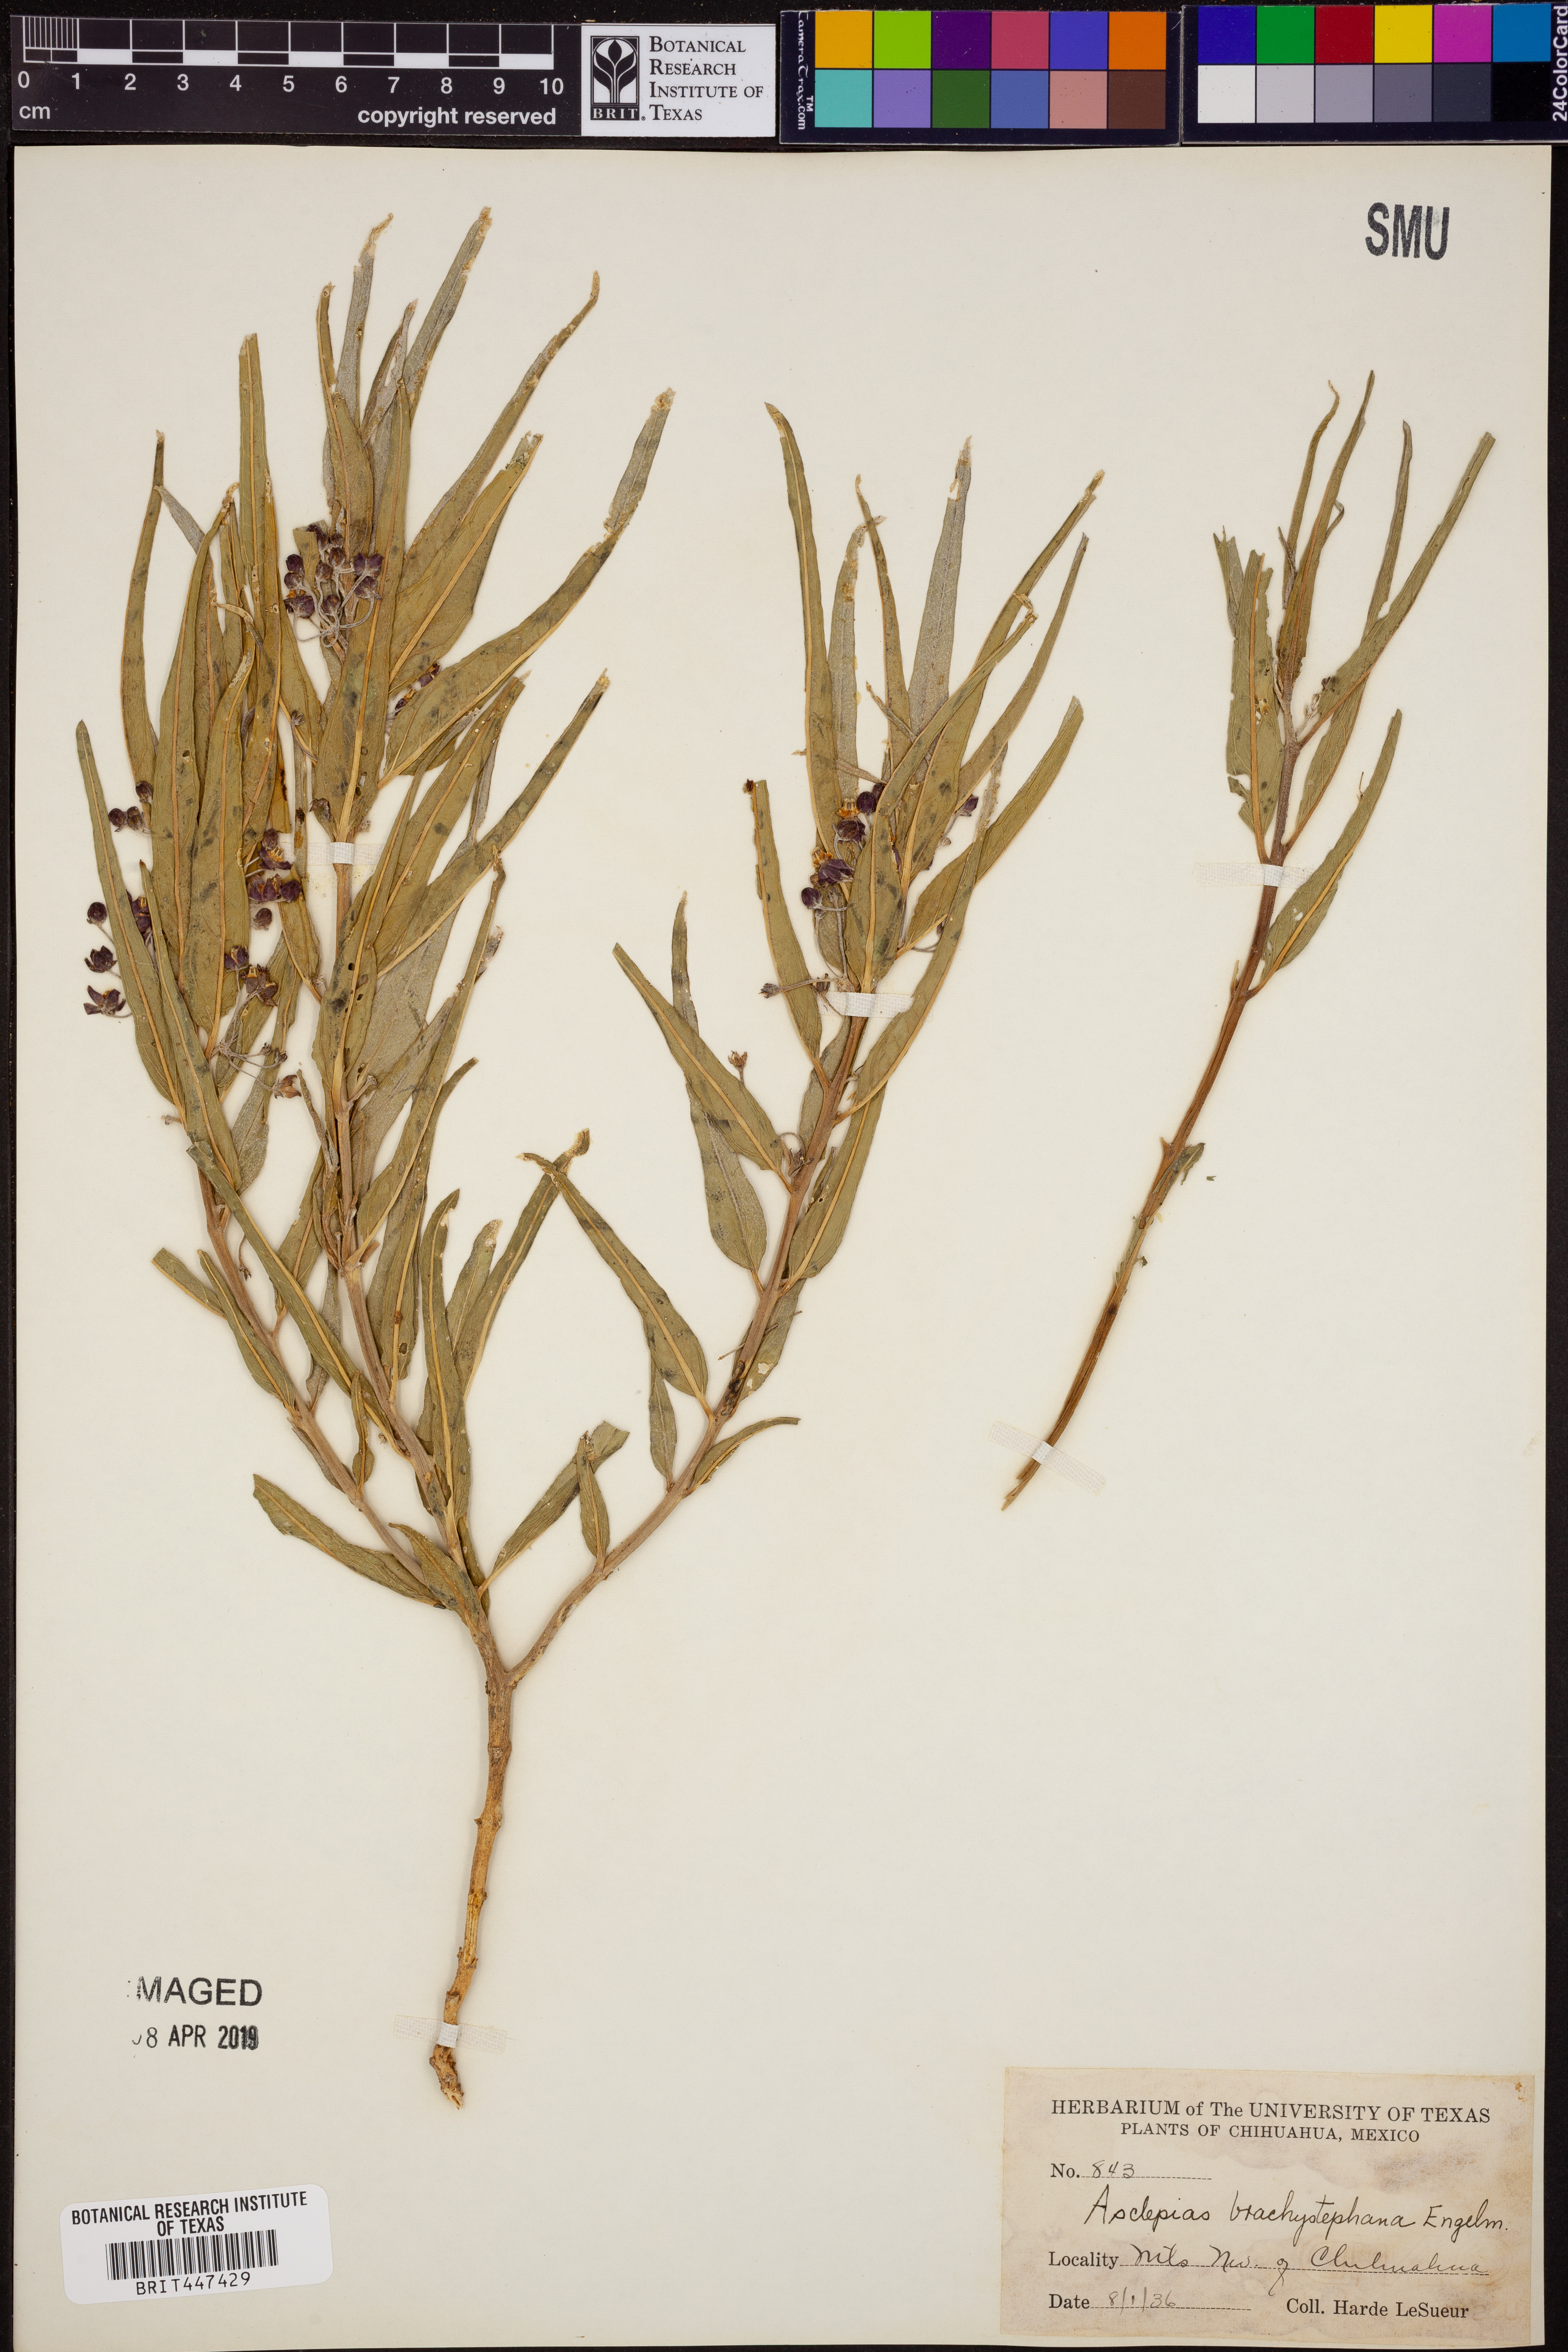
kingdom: Plantae
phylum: Tracheophyta
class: Magnoliopsida
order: Gentianales
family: Apocynaceae
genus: Asclepias
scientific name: Asclepias brachystephana
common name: Shortcrown milkweed
